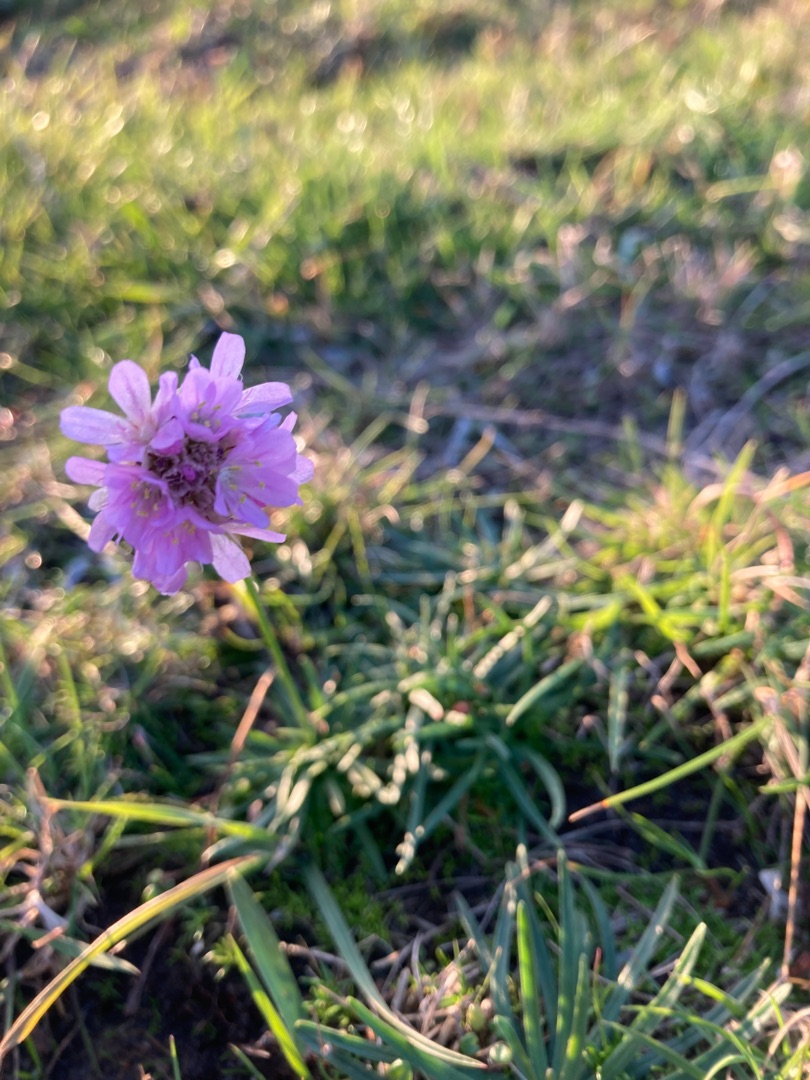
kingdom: Plantae
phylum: Tracheophyta
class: Magnoliopsida
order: Caryophyllales
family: Plumbaginaceae
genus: Armeria
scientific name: Armeria maritima
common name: Engelskgræs
